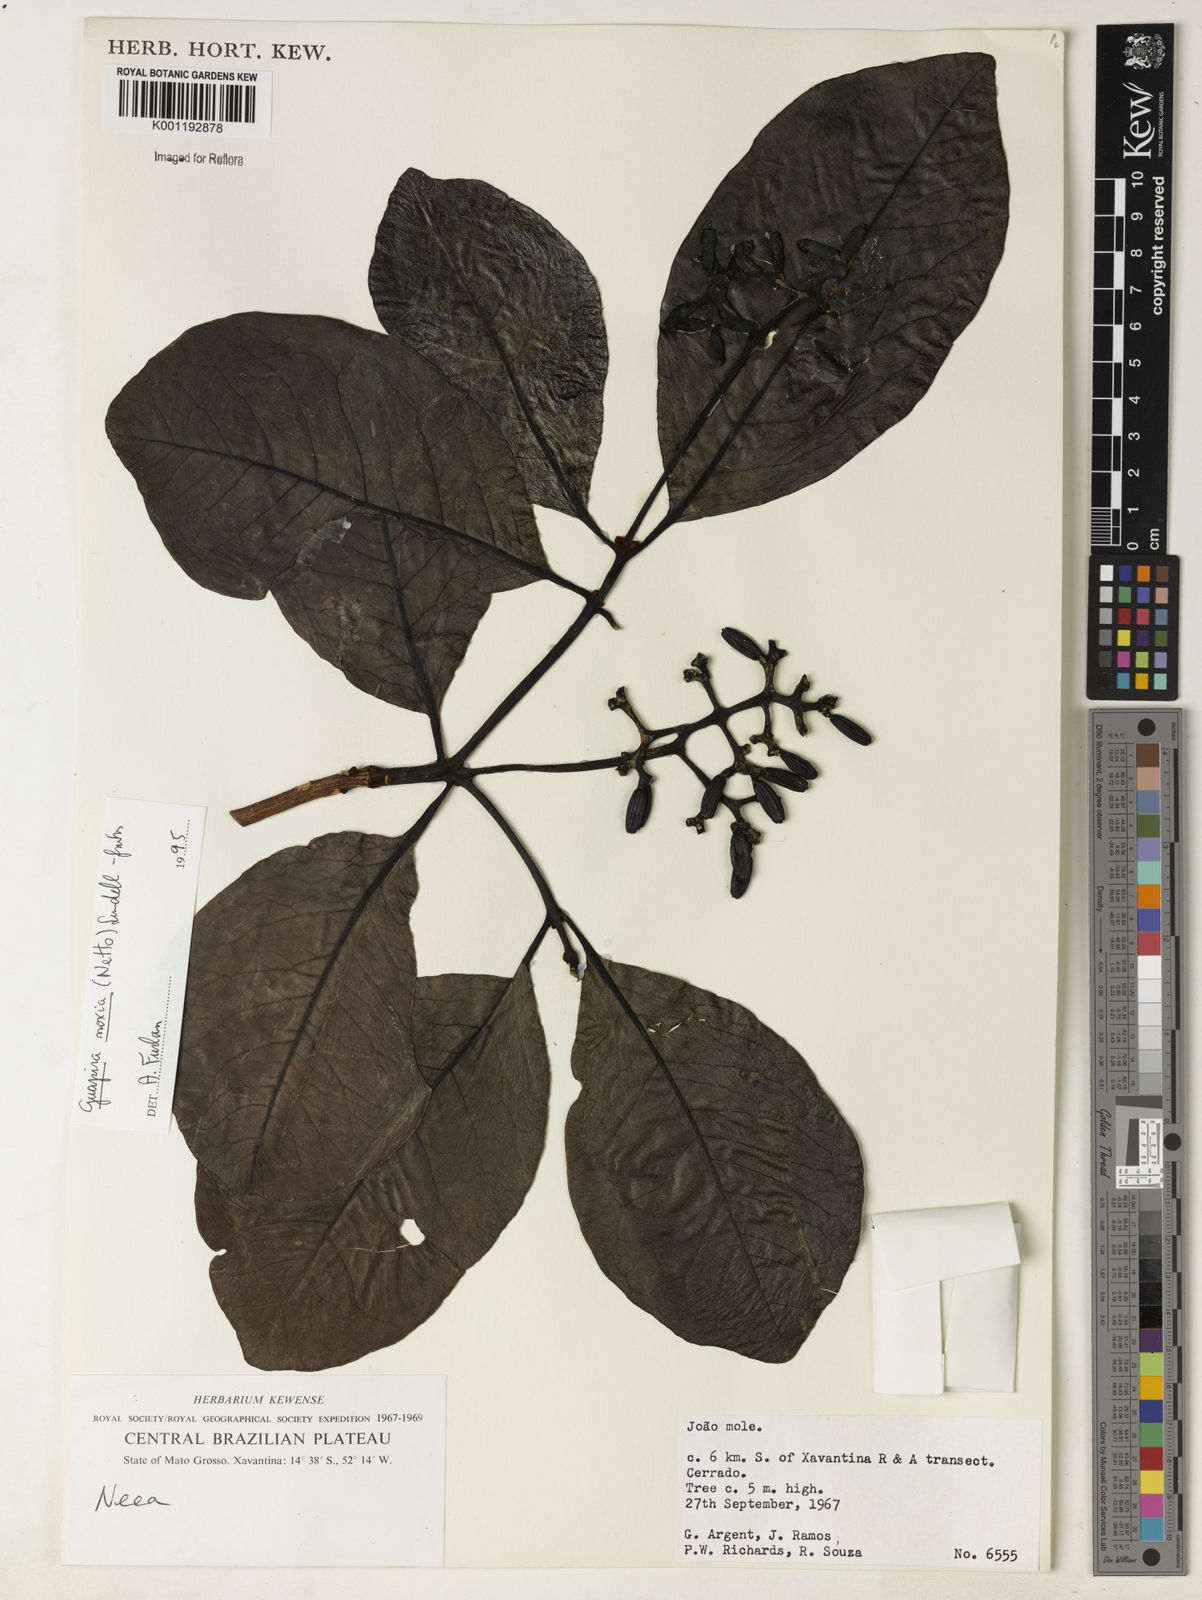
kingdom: Plantae
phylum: Tracheophyta
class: Magnoliopsida
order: Caryophyllales
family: Nyctaginaceae
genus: Guapira
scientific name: Guapira noxia
